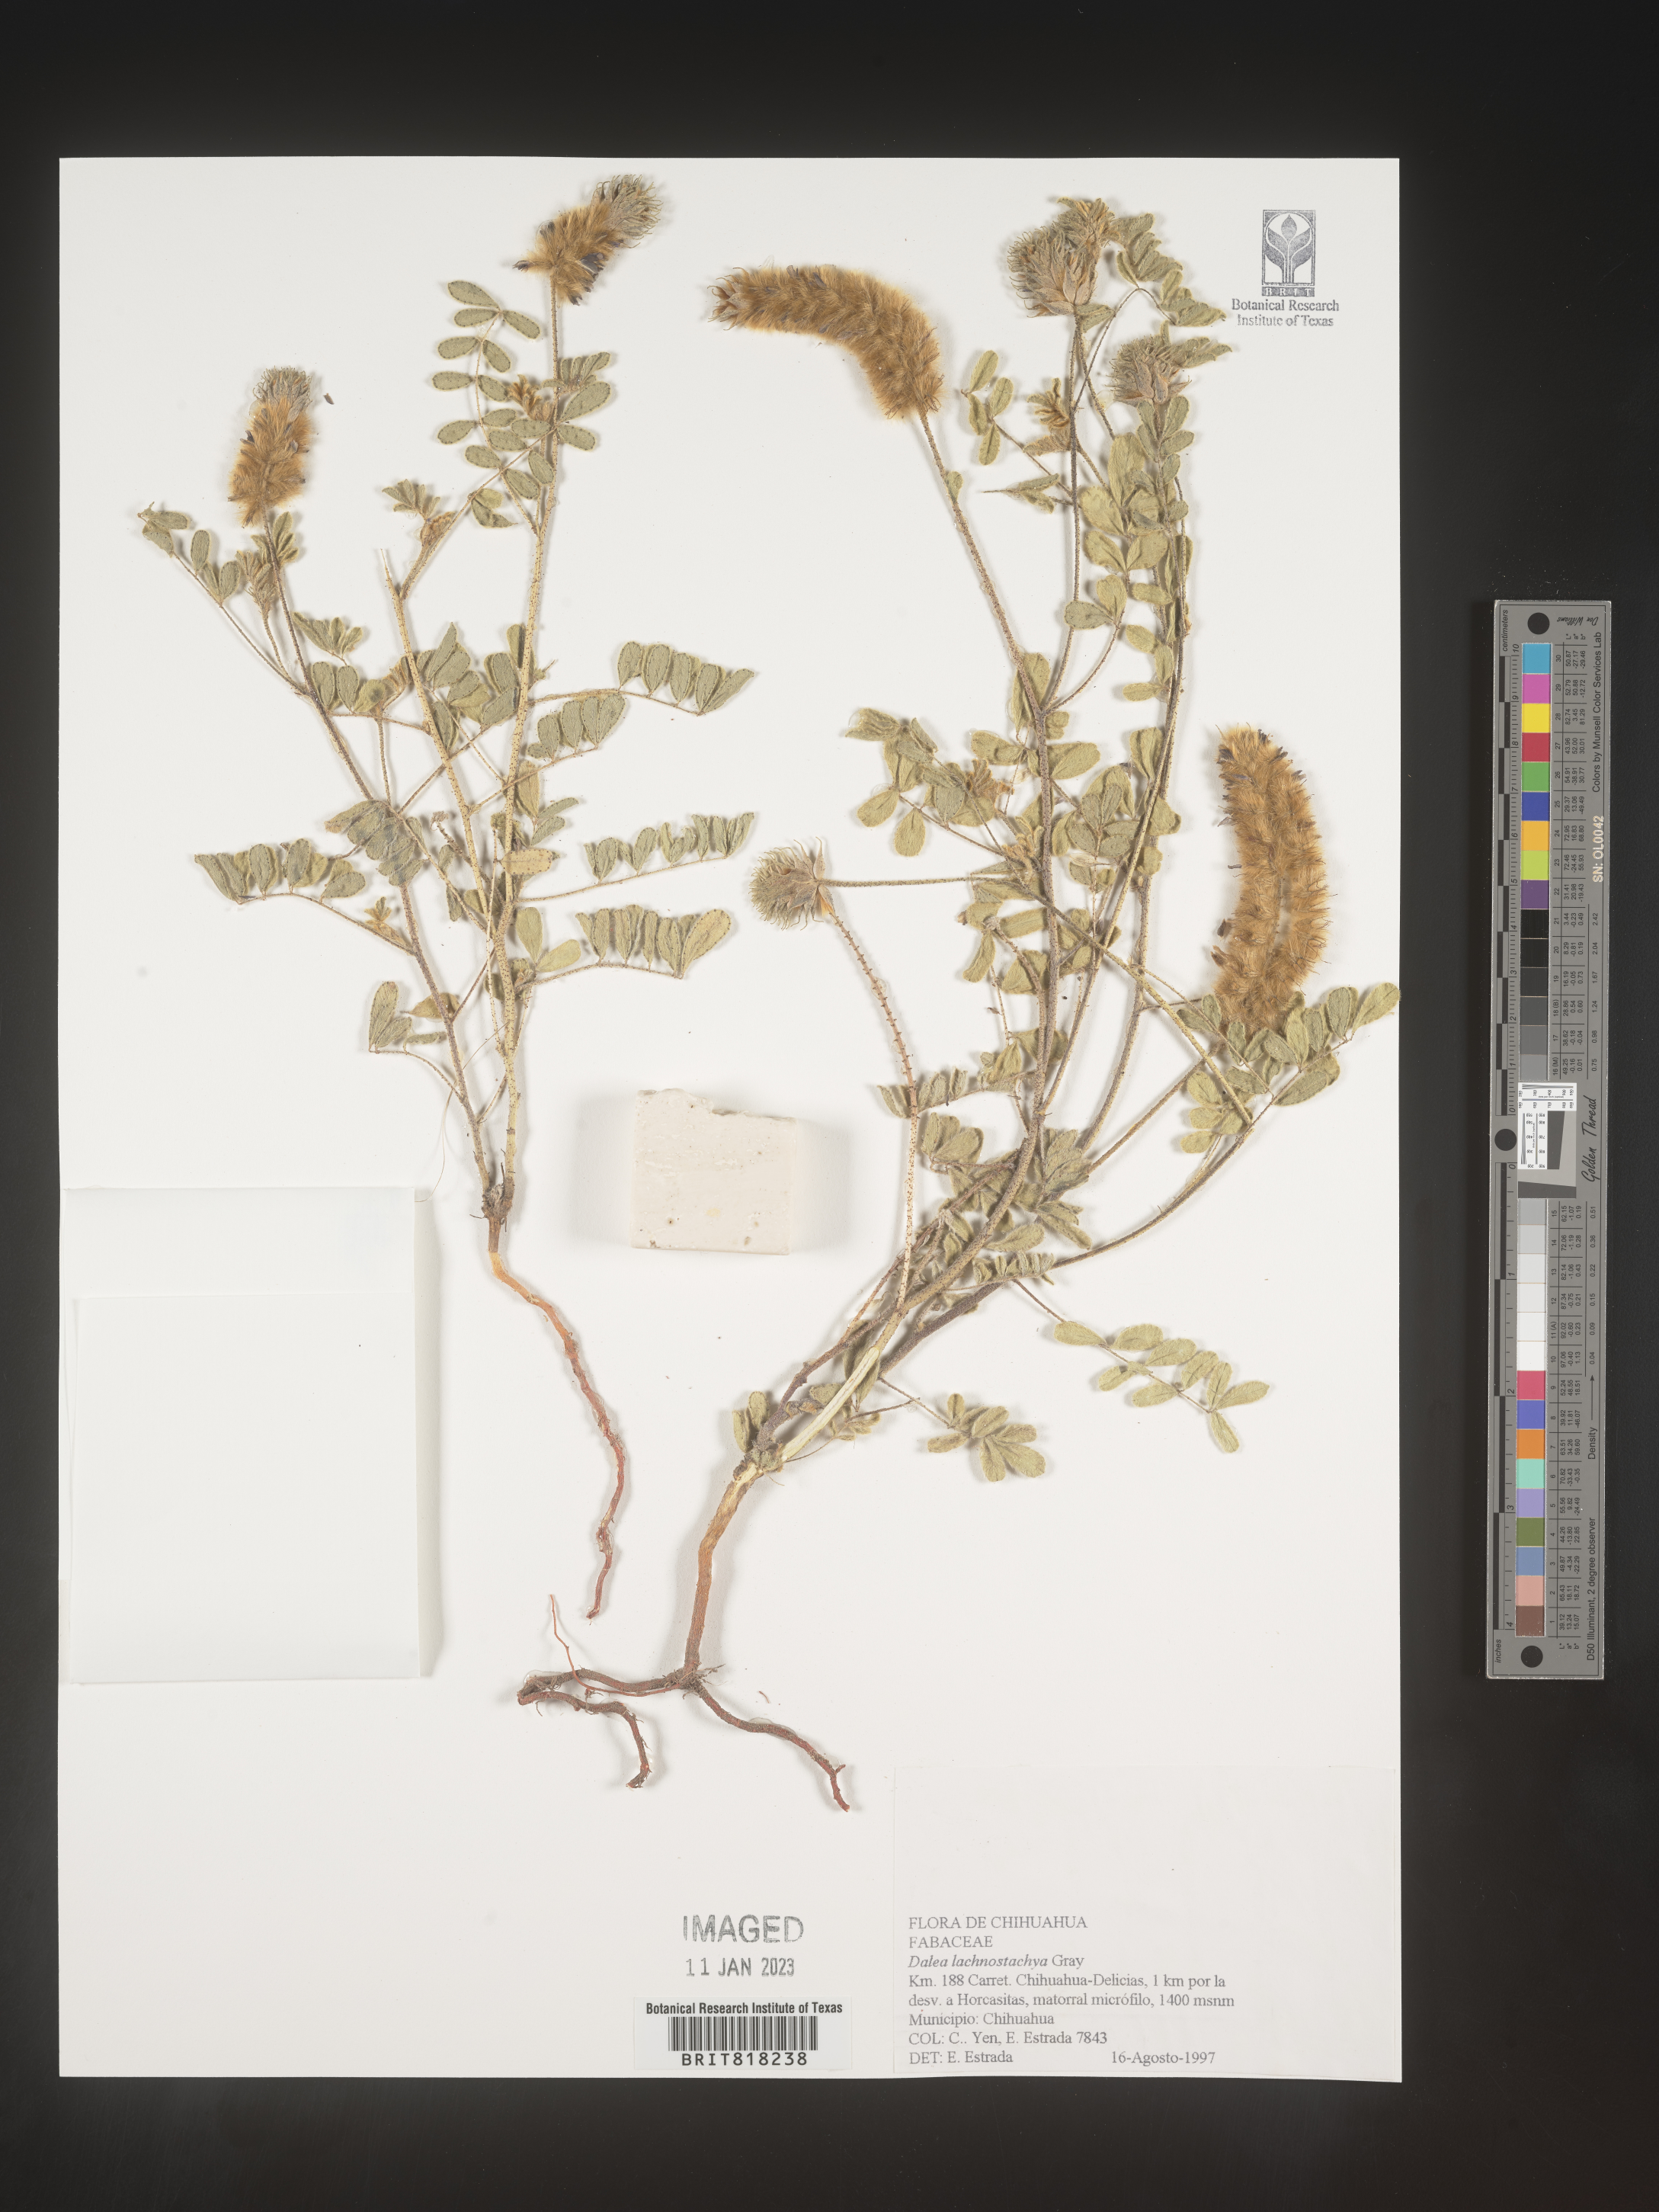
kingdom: Plantae
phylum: Tracheophyta
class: Magnoliopsida
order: Fabales
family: Fabaceae
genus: Dalea
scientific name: Dalea
